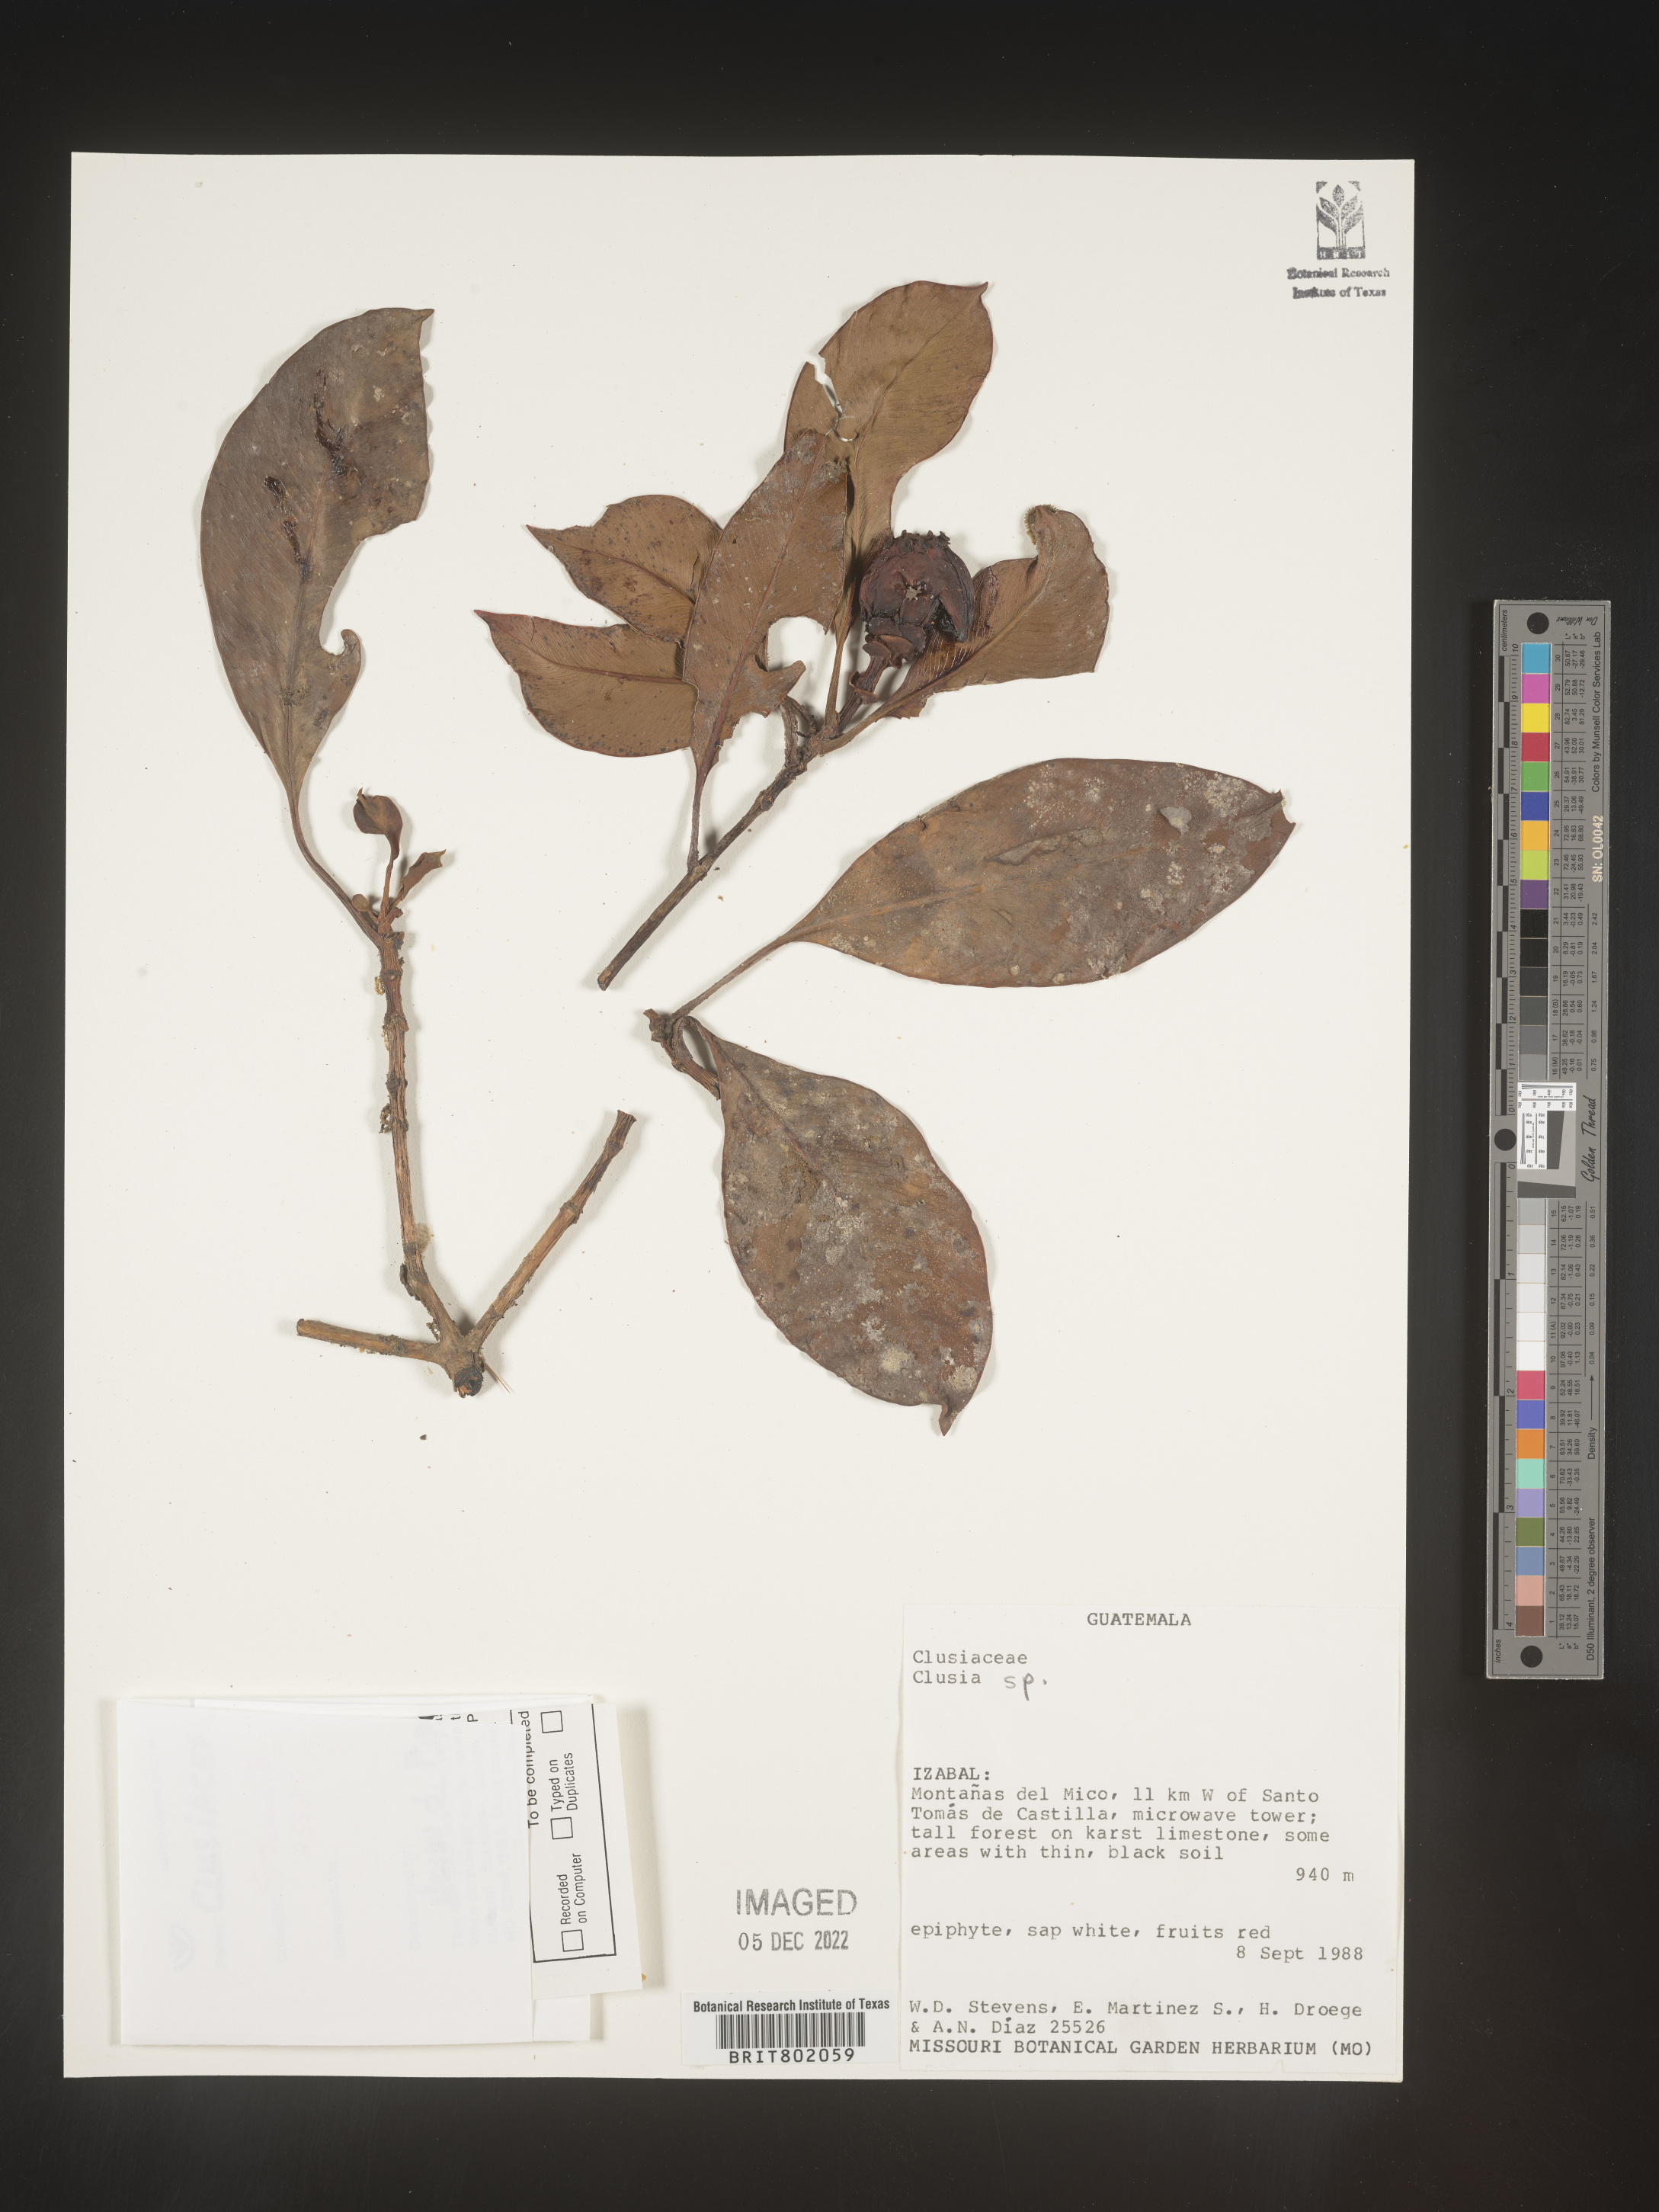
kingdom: Plantae
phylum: Tracheophyta
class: Magnoliopsida
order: Malpighiales
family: Clusiaceae
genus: Clusia
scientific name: Clusia
